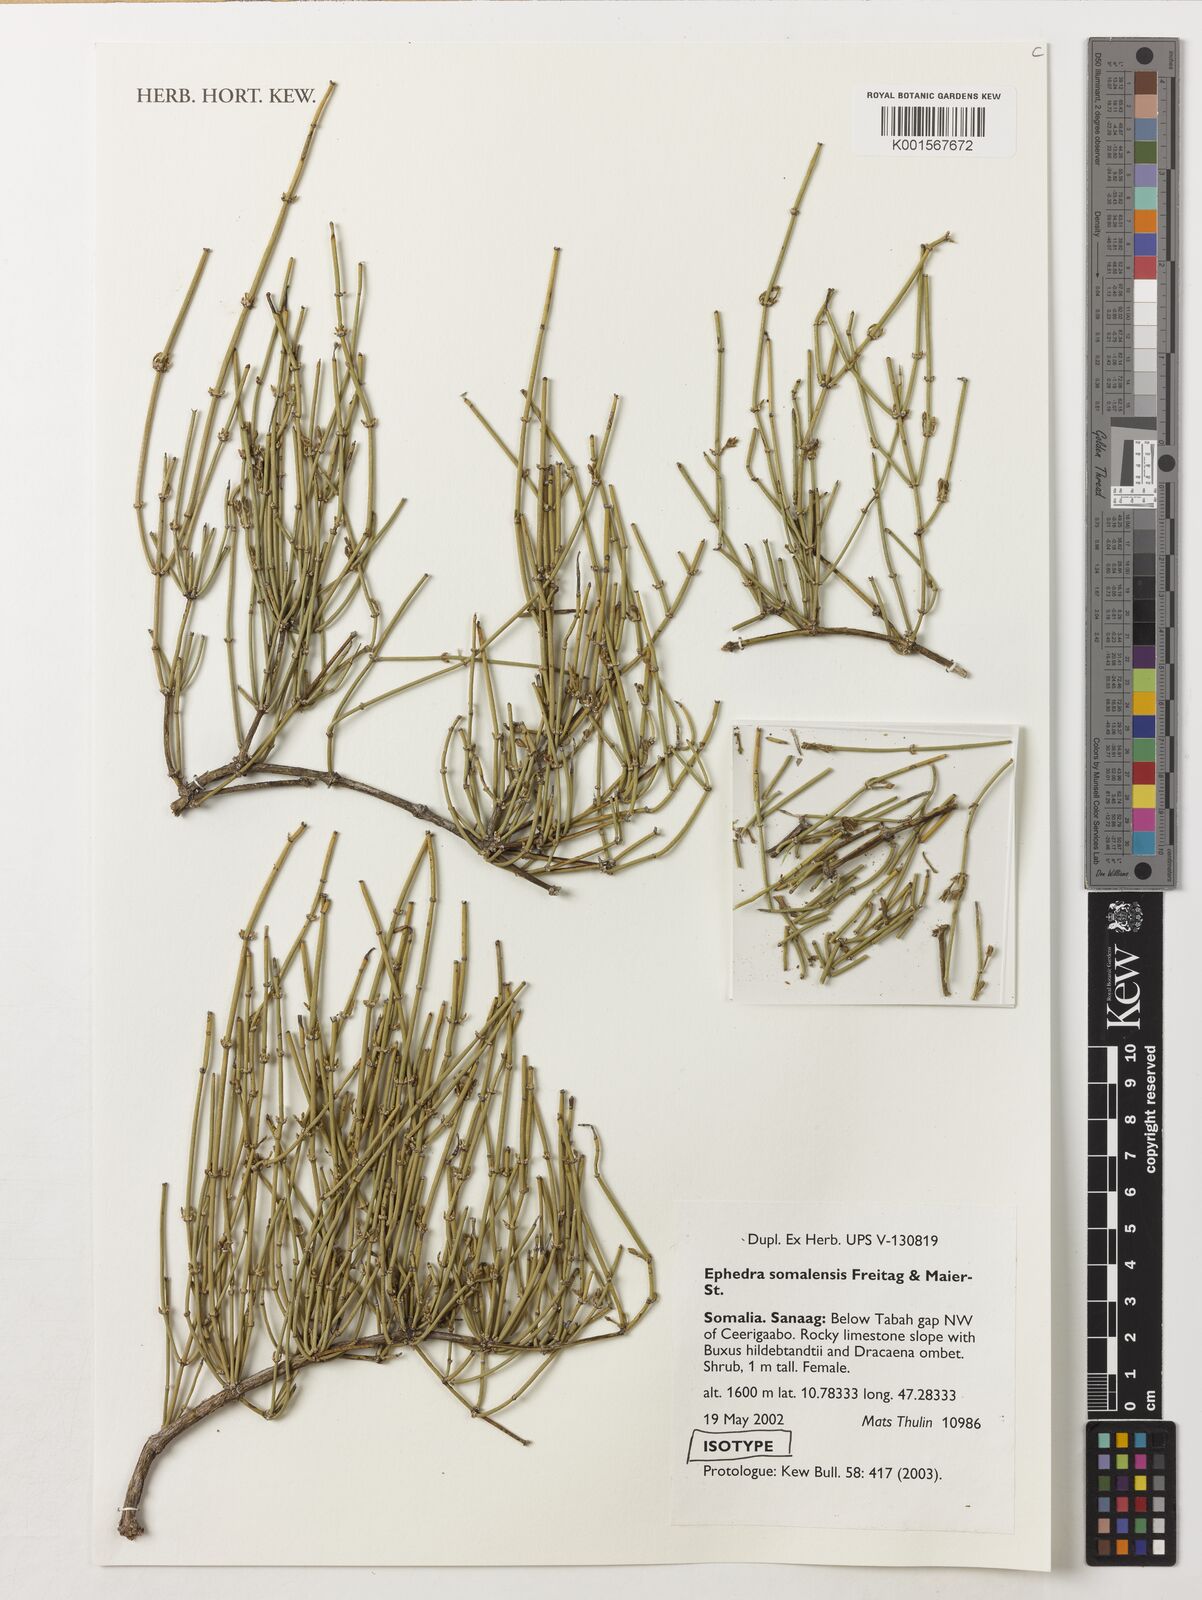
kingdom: Plantae
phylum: Tracheophyta
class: Gnetopsida
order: Ephedrales
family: Ephedraceae
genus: Ephedra
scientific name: Ephedra somalensis
